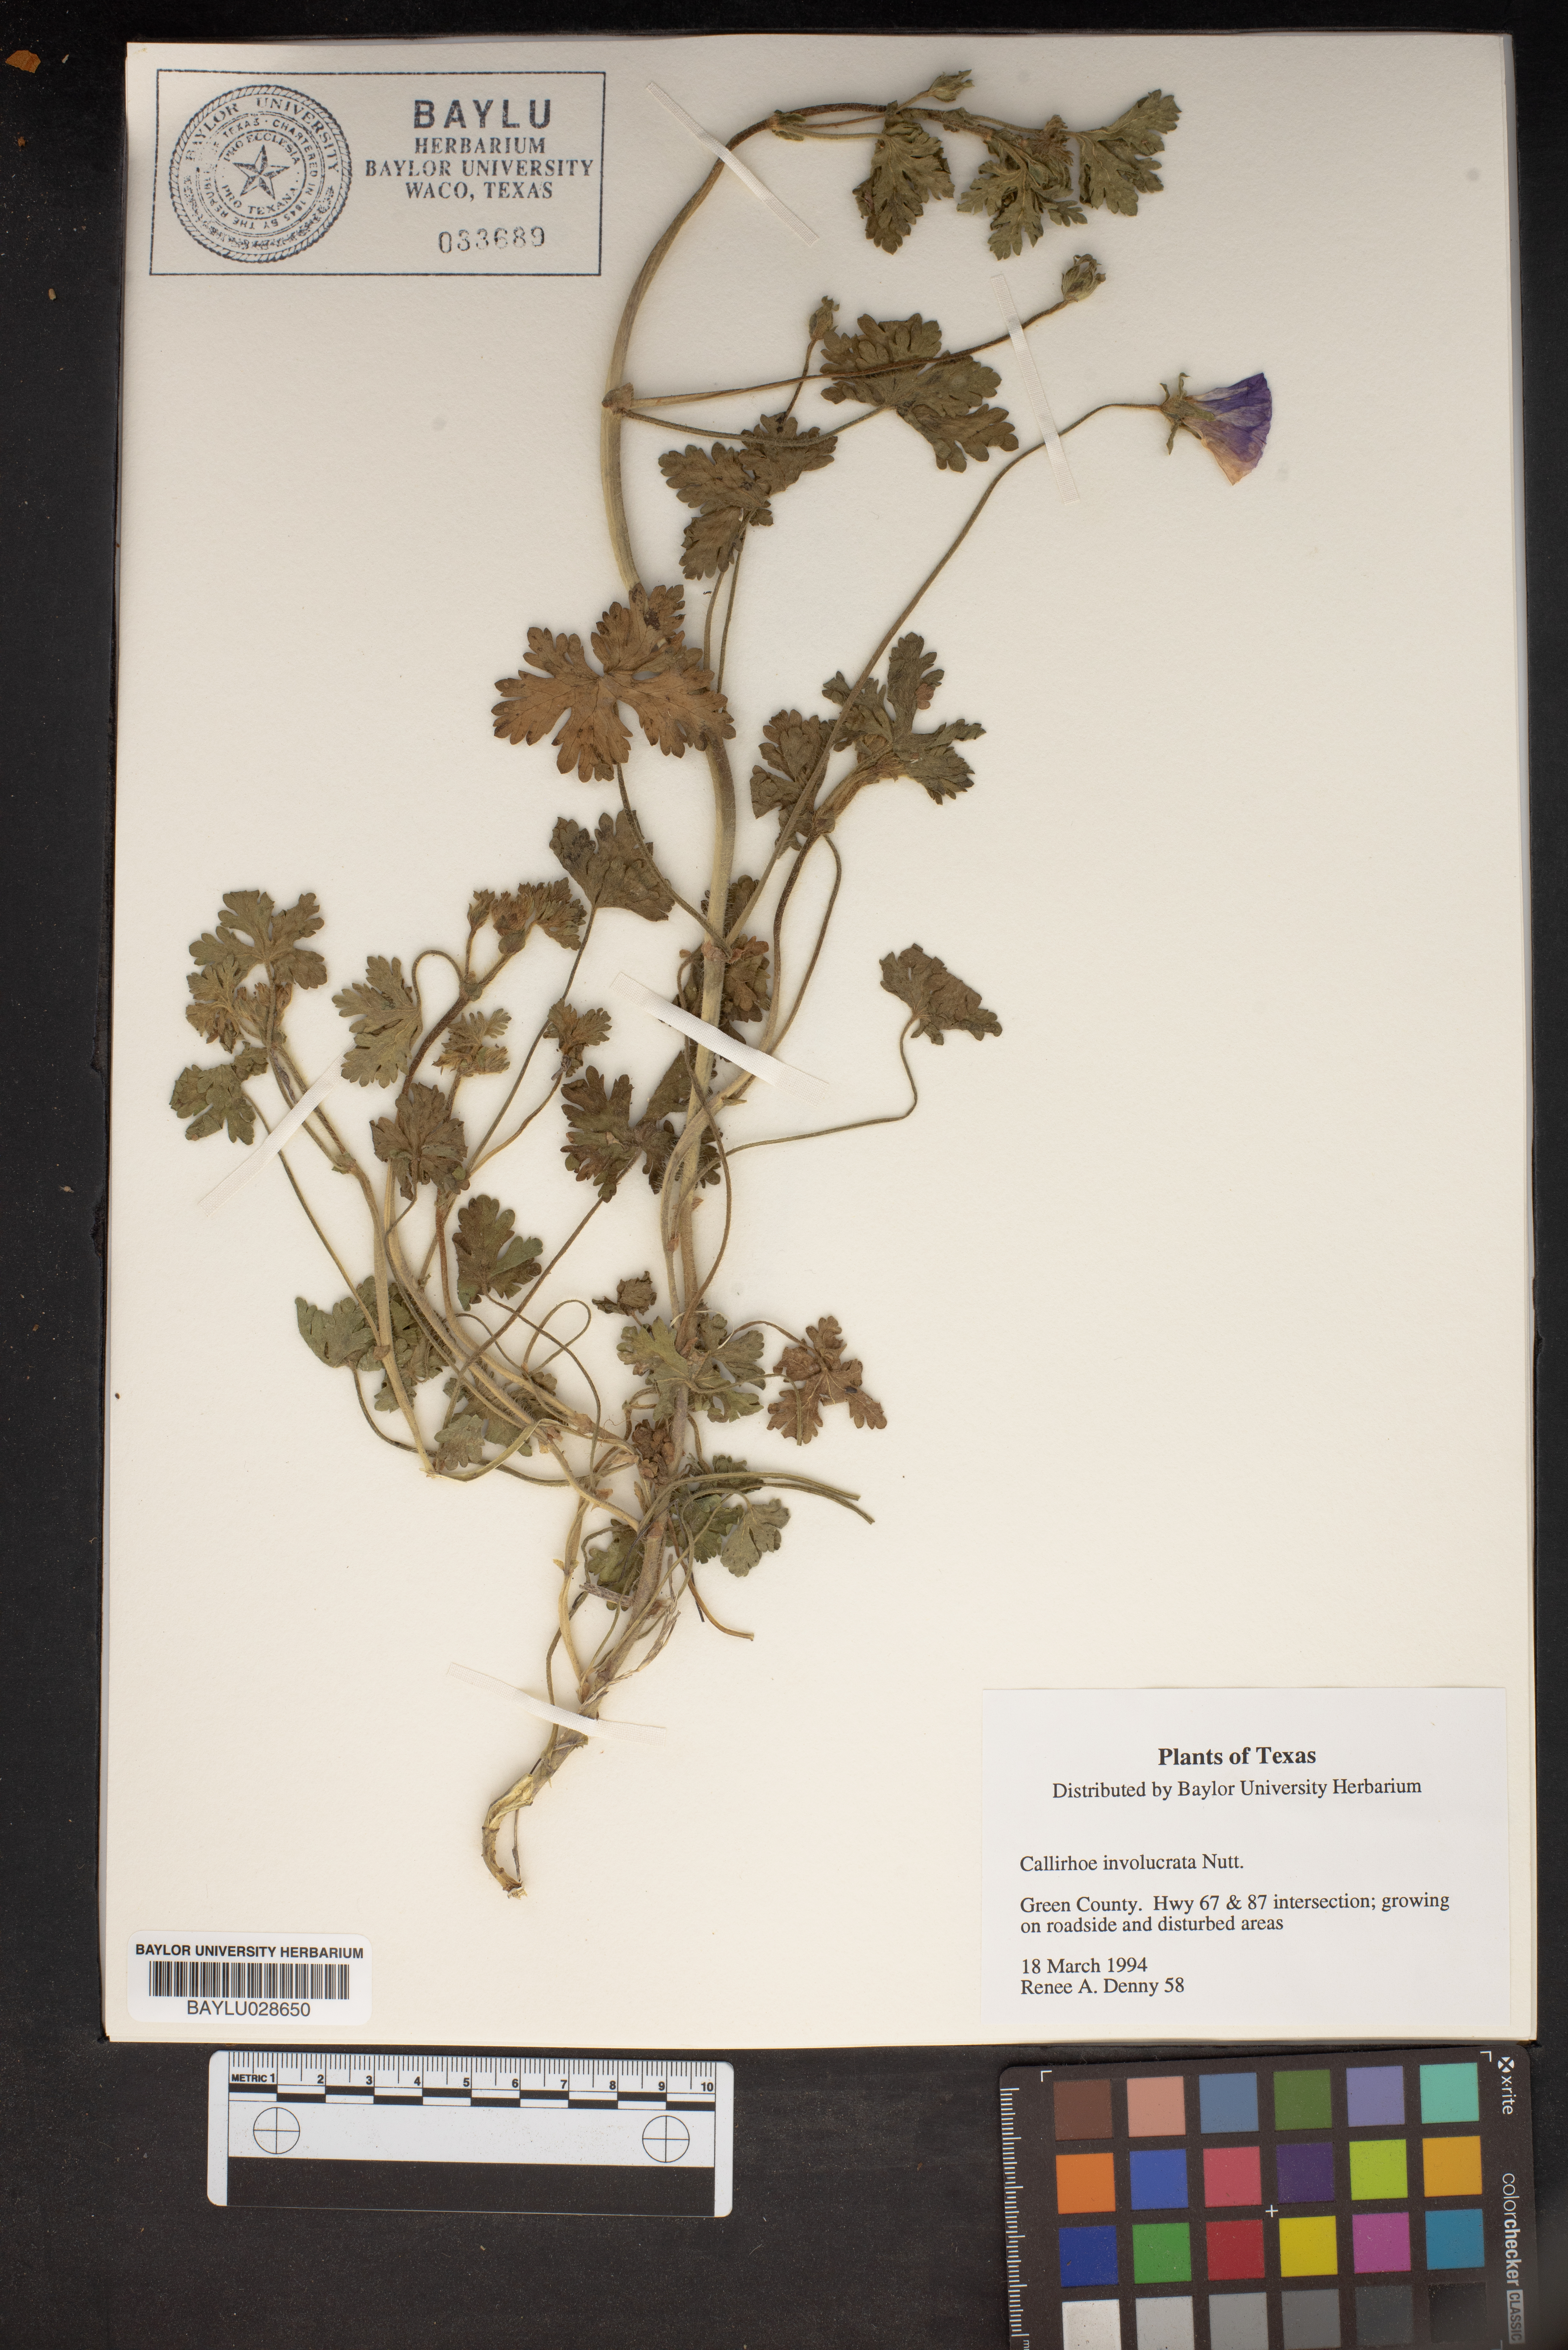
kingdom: Plantae
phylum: Tracheophyta
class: Magnoliopsida
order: Malvales
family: Malvaceae
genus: Callirhoe
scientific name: Callirhoe involucrata
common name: Purple poppy-mallow
